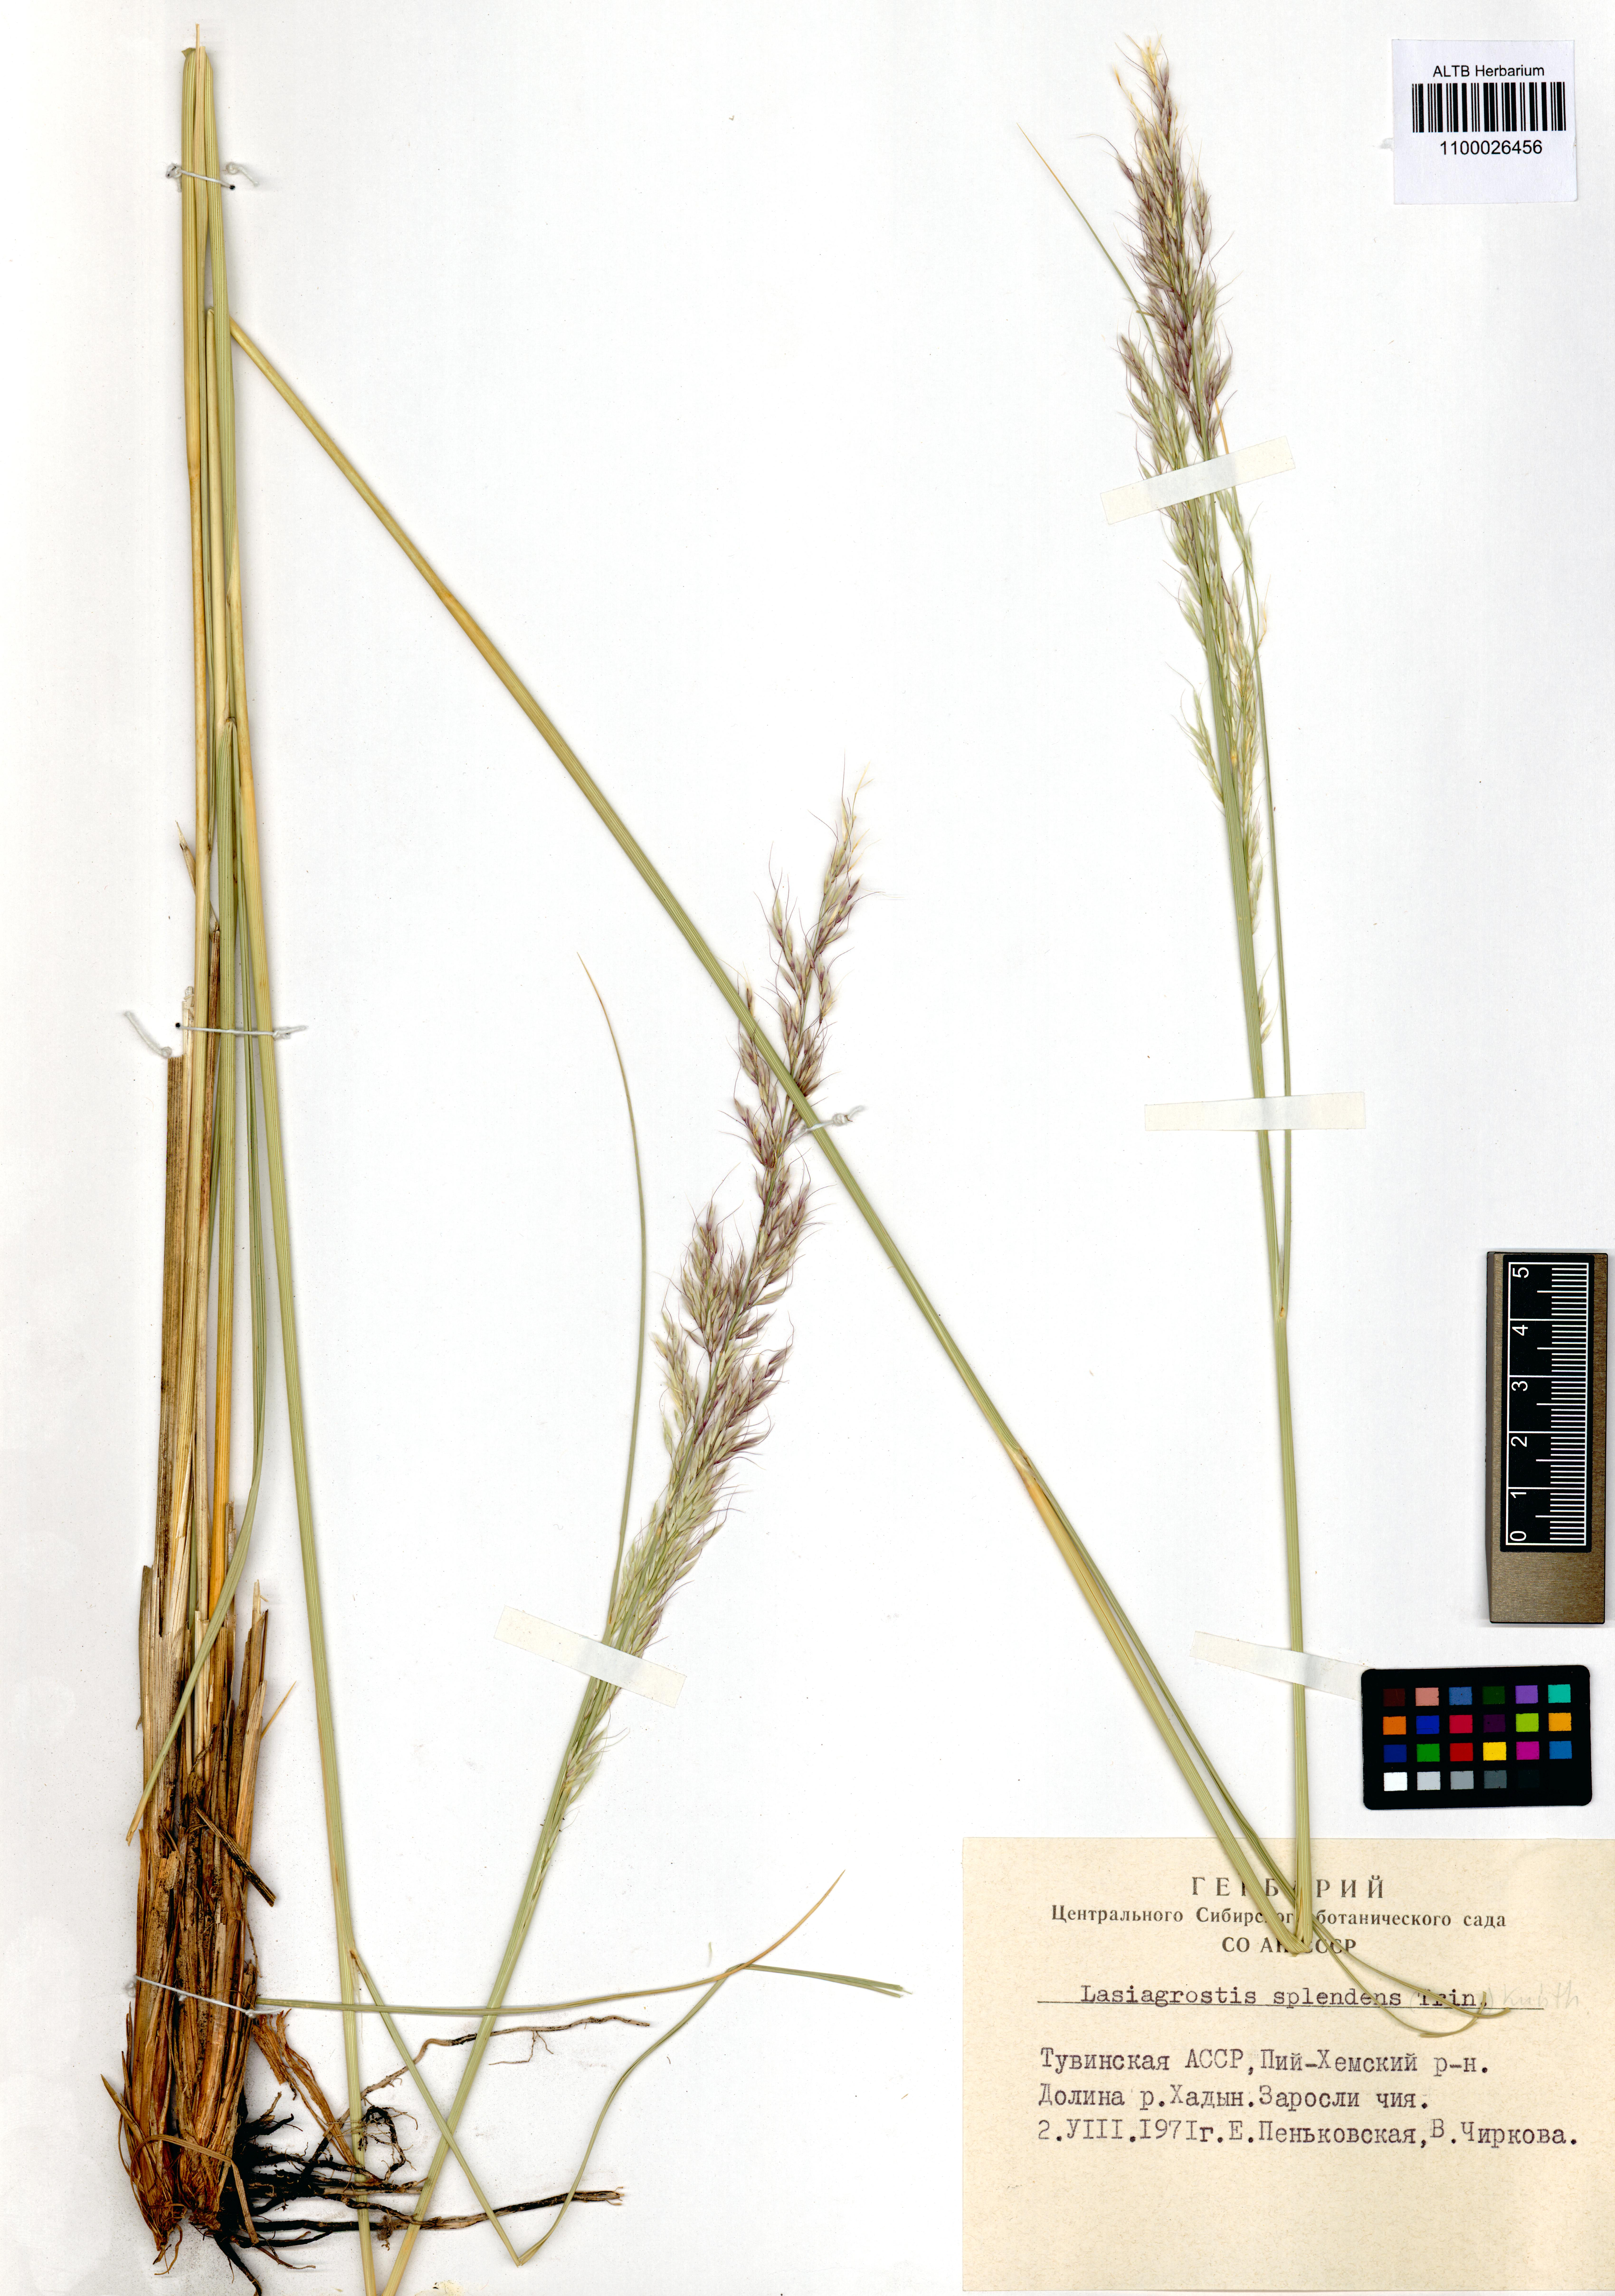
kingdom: Plantae
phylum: Tracheophyta
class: Liliopsida
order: Poales
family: Poaceae
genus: Neotrinia
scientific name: Neotrinia splendens
